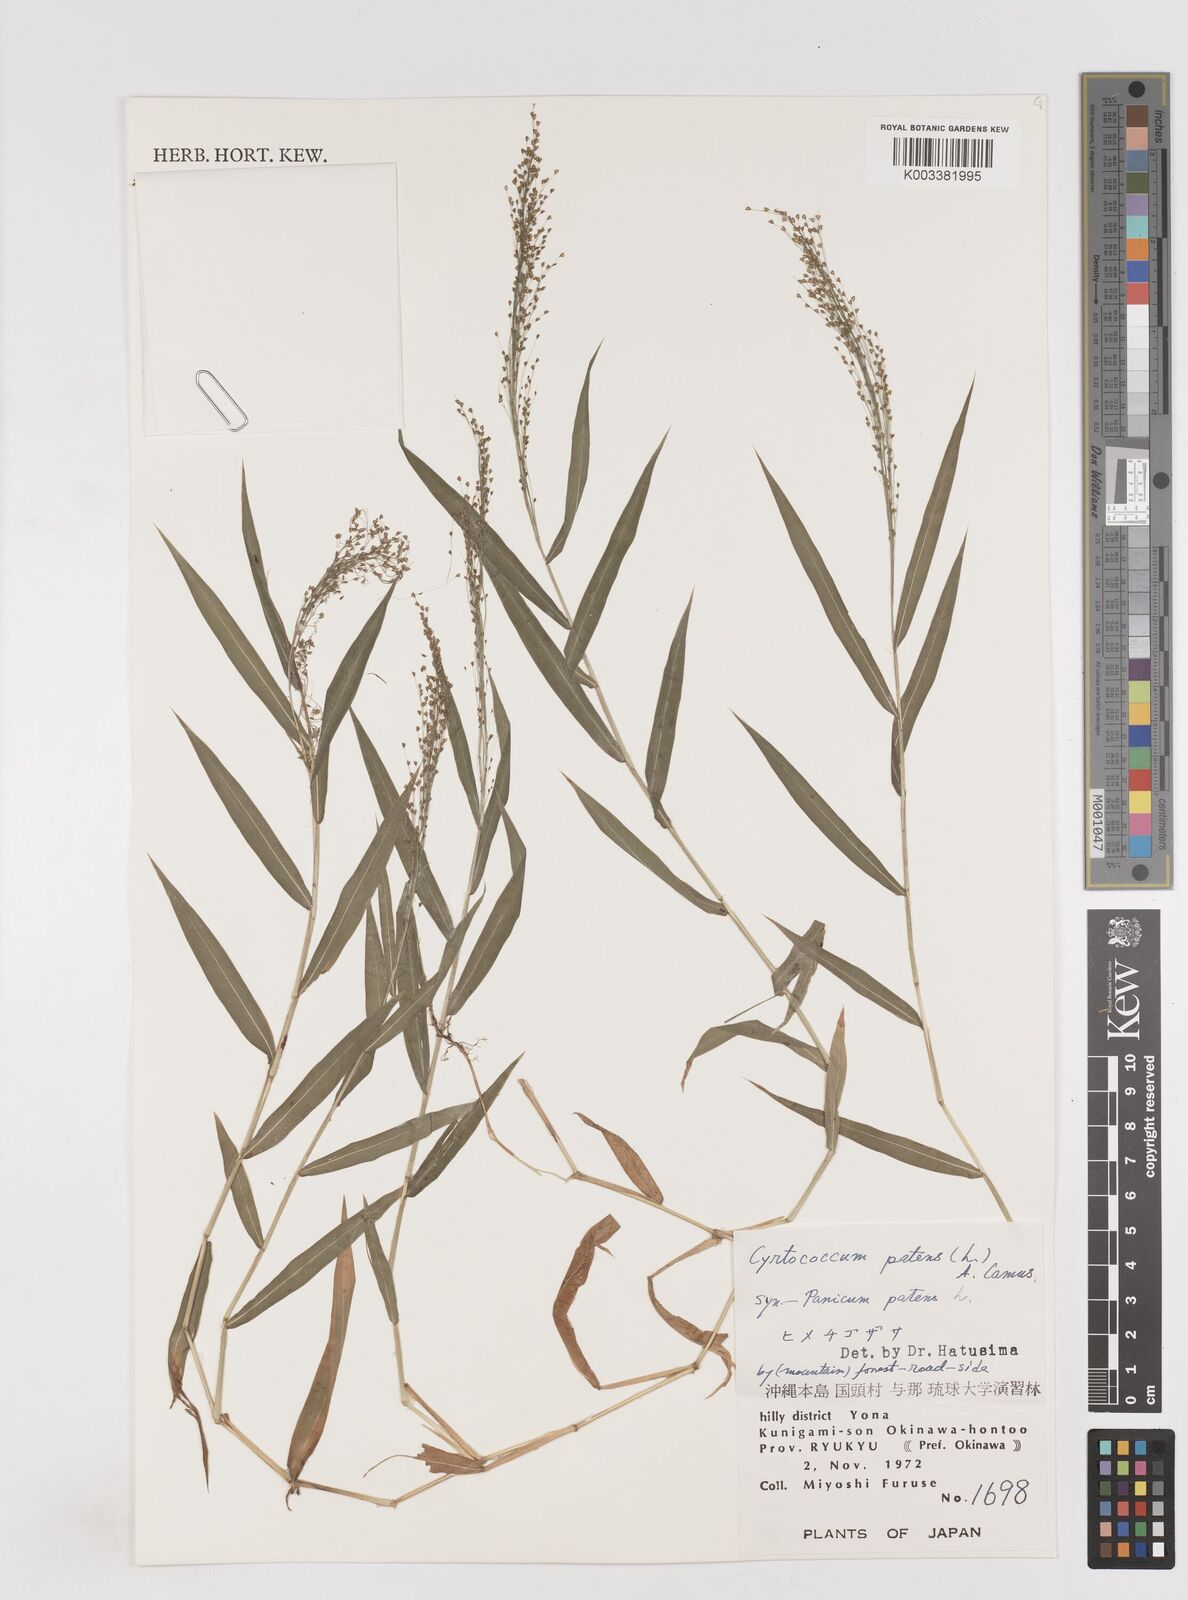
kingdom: Plantae
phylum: Tracheophyta
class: Liliopsida
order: Poales
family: Poaceae
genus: Cyrtococcum
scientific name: Cyrtococcum patens
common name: Broad-leaved bowgrass
